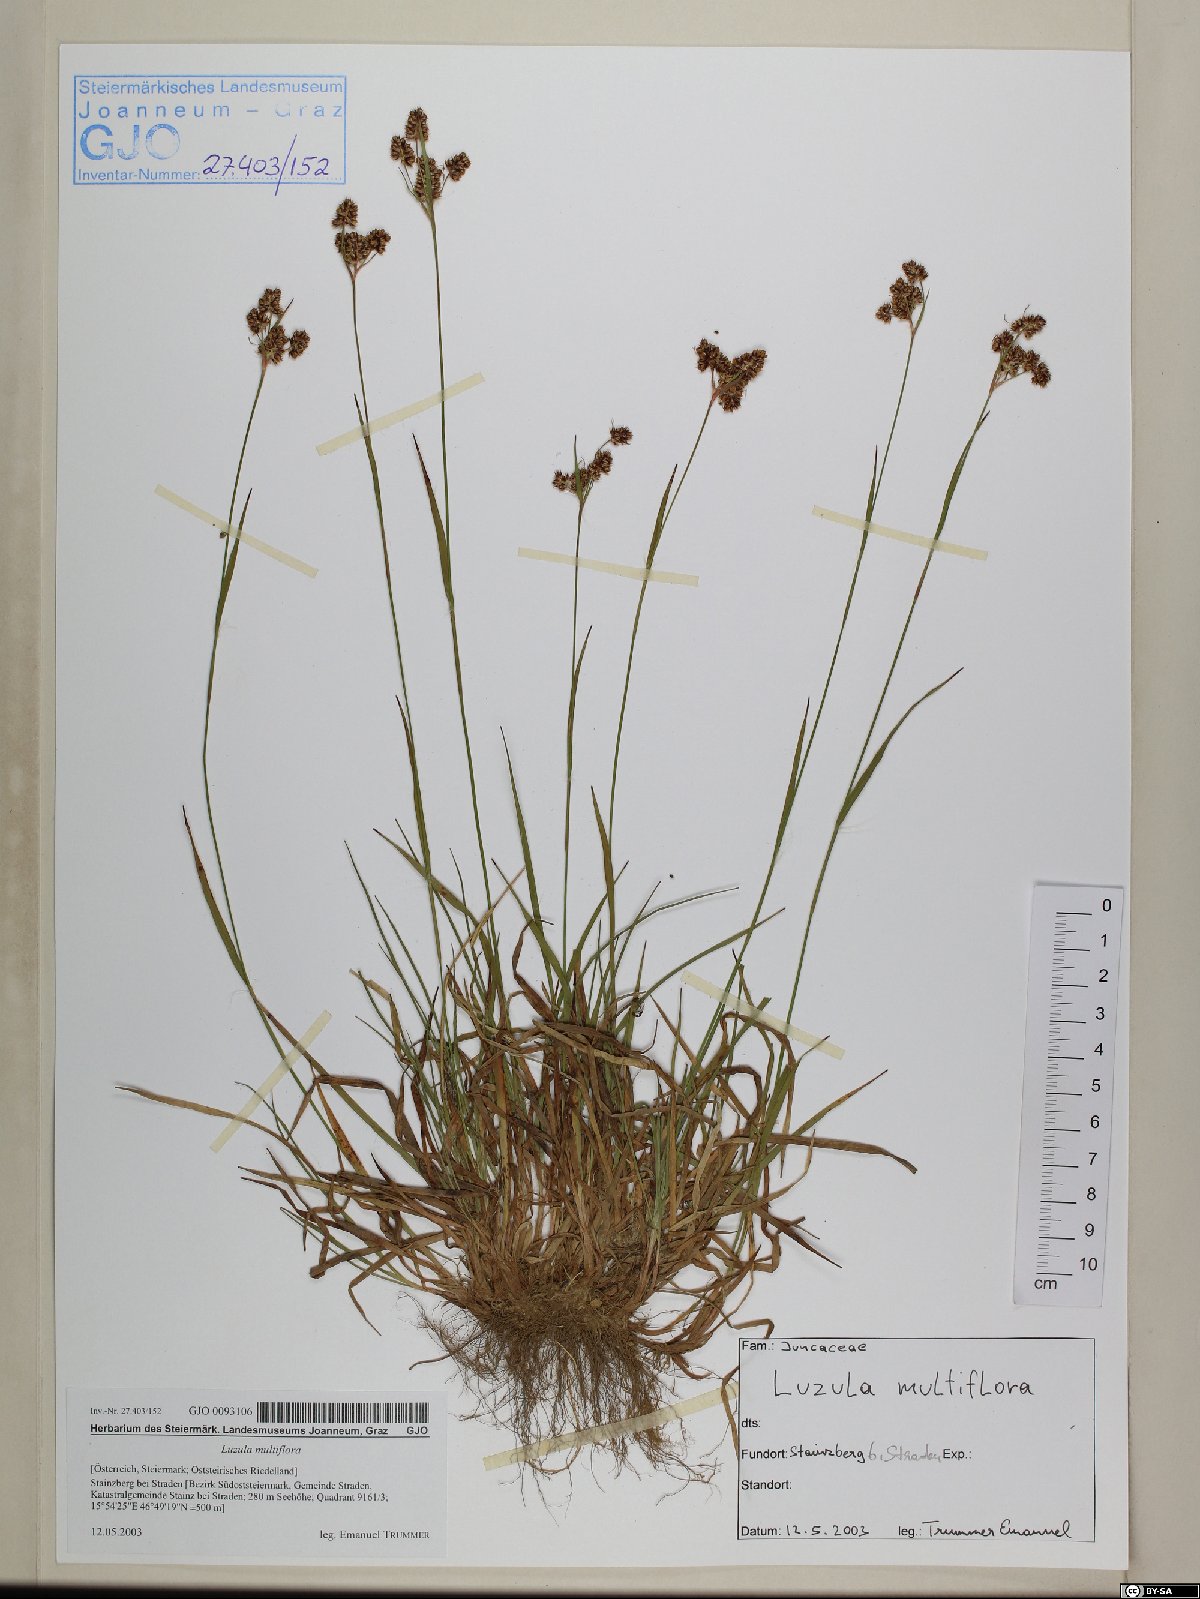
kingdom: Plantae
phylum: Tracheophyta
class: Liliopsida
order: Poales
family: Juncaceae
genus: Luzula
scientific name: Luzula multiflora
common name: Heath wood-rush
